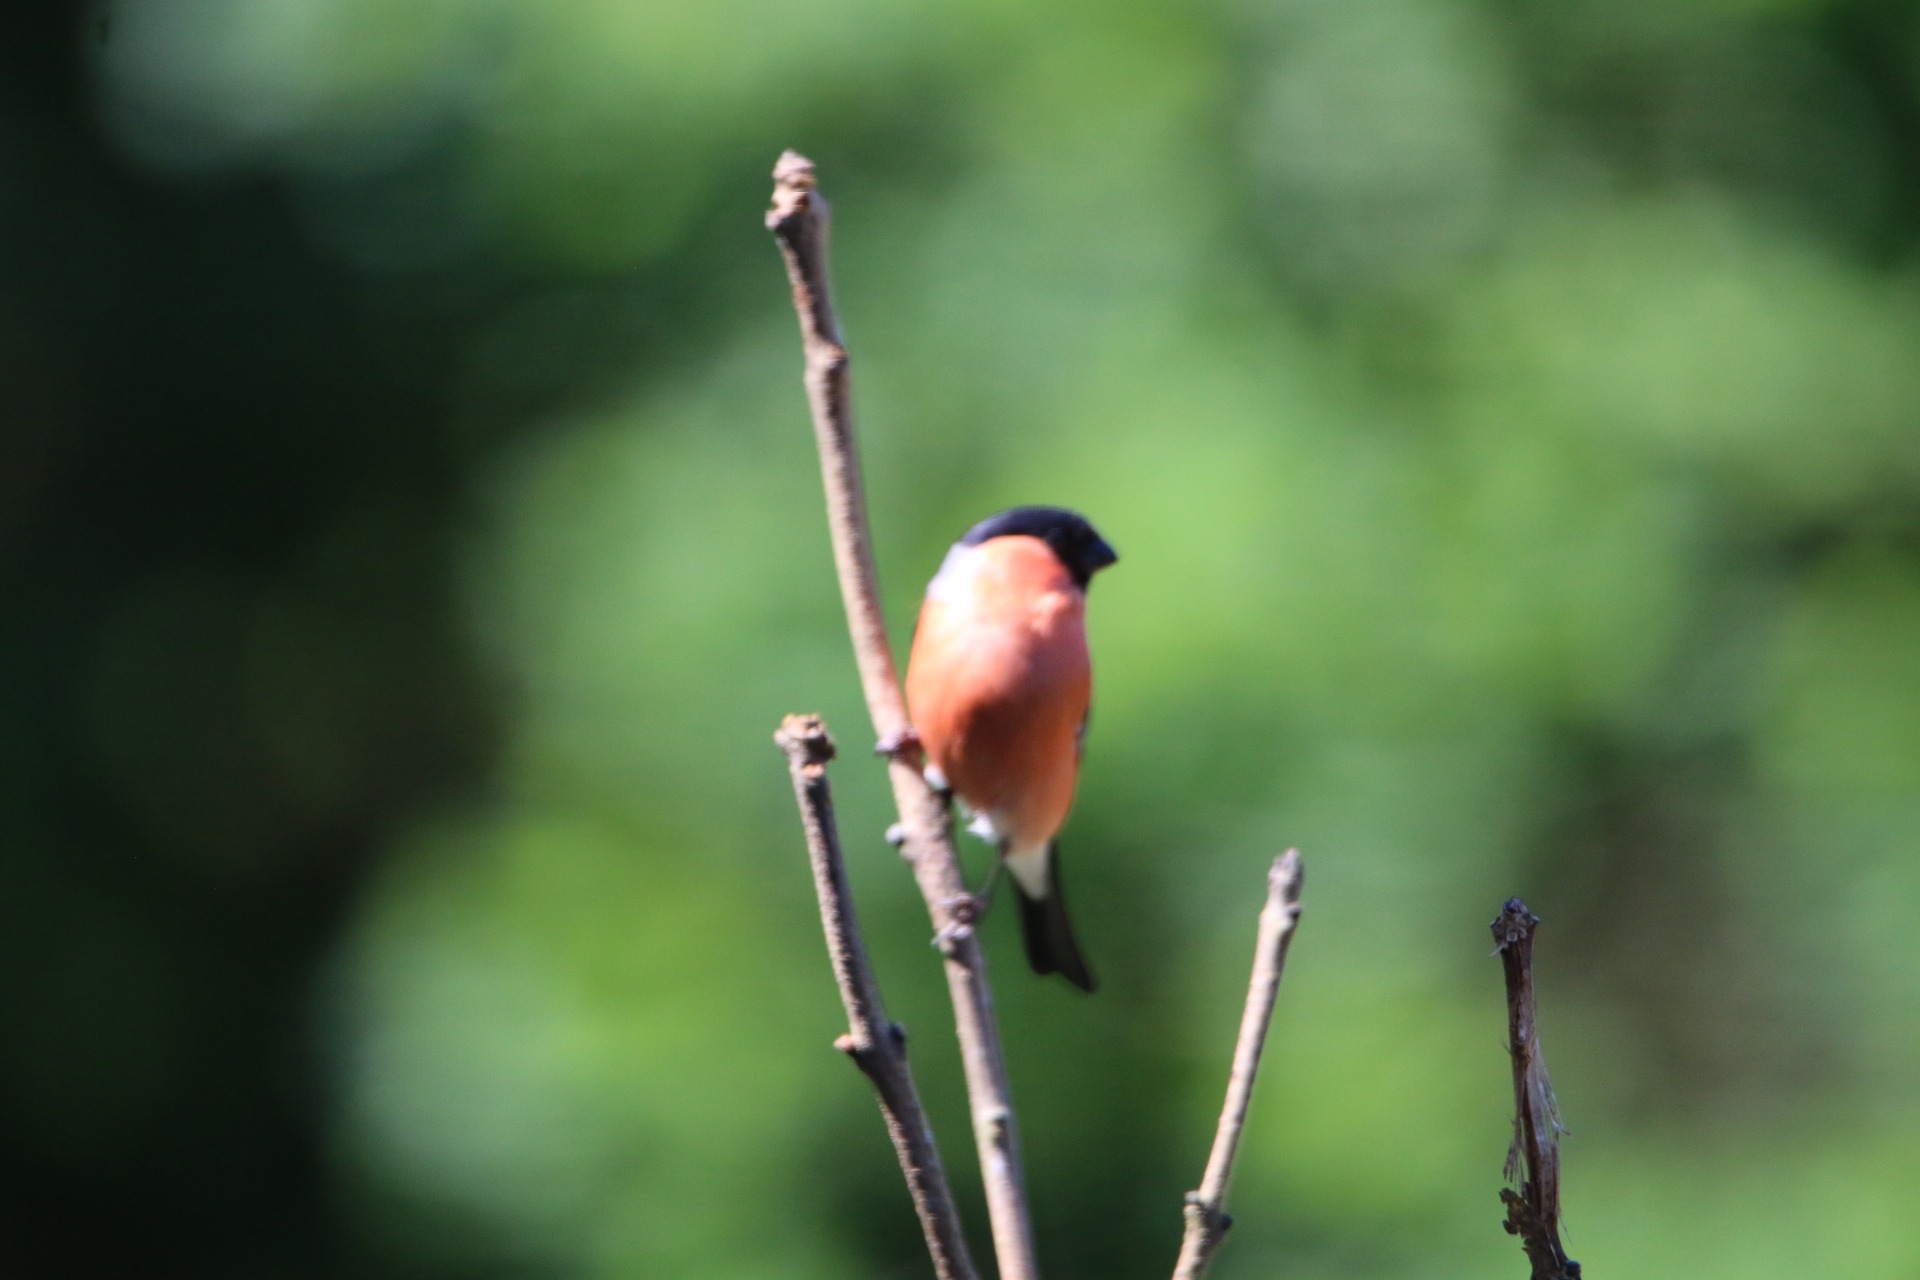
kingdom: Animalia
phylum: Chordata
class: Aves
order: Passeriformes
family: Fringillidae
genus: Pyrrhula
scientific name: Pyrrhula pyrrhula
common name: Dompap
